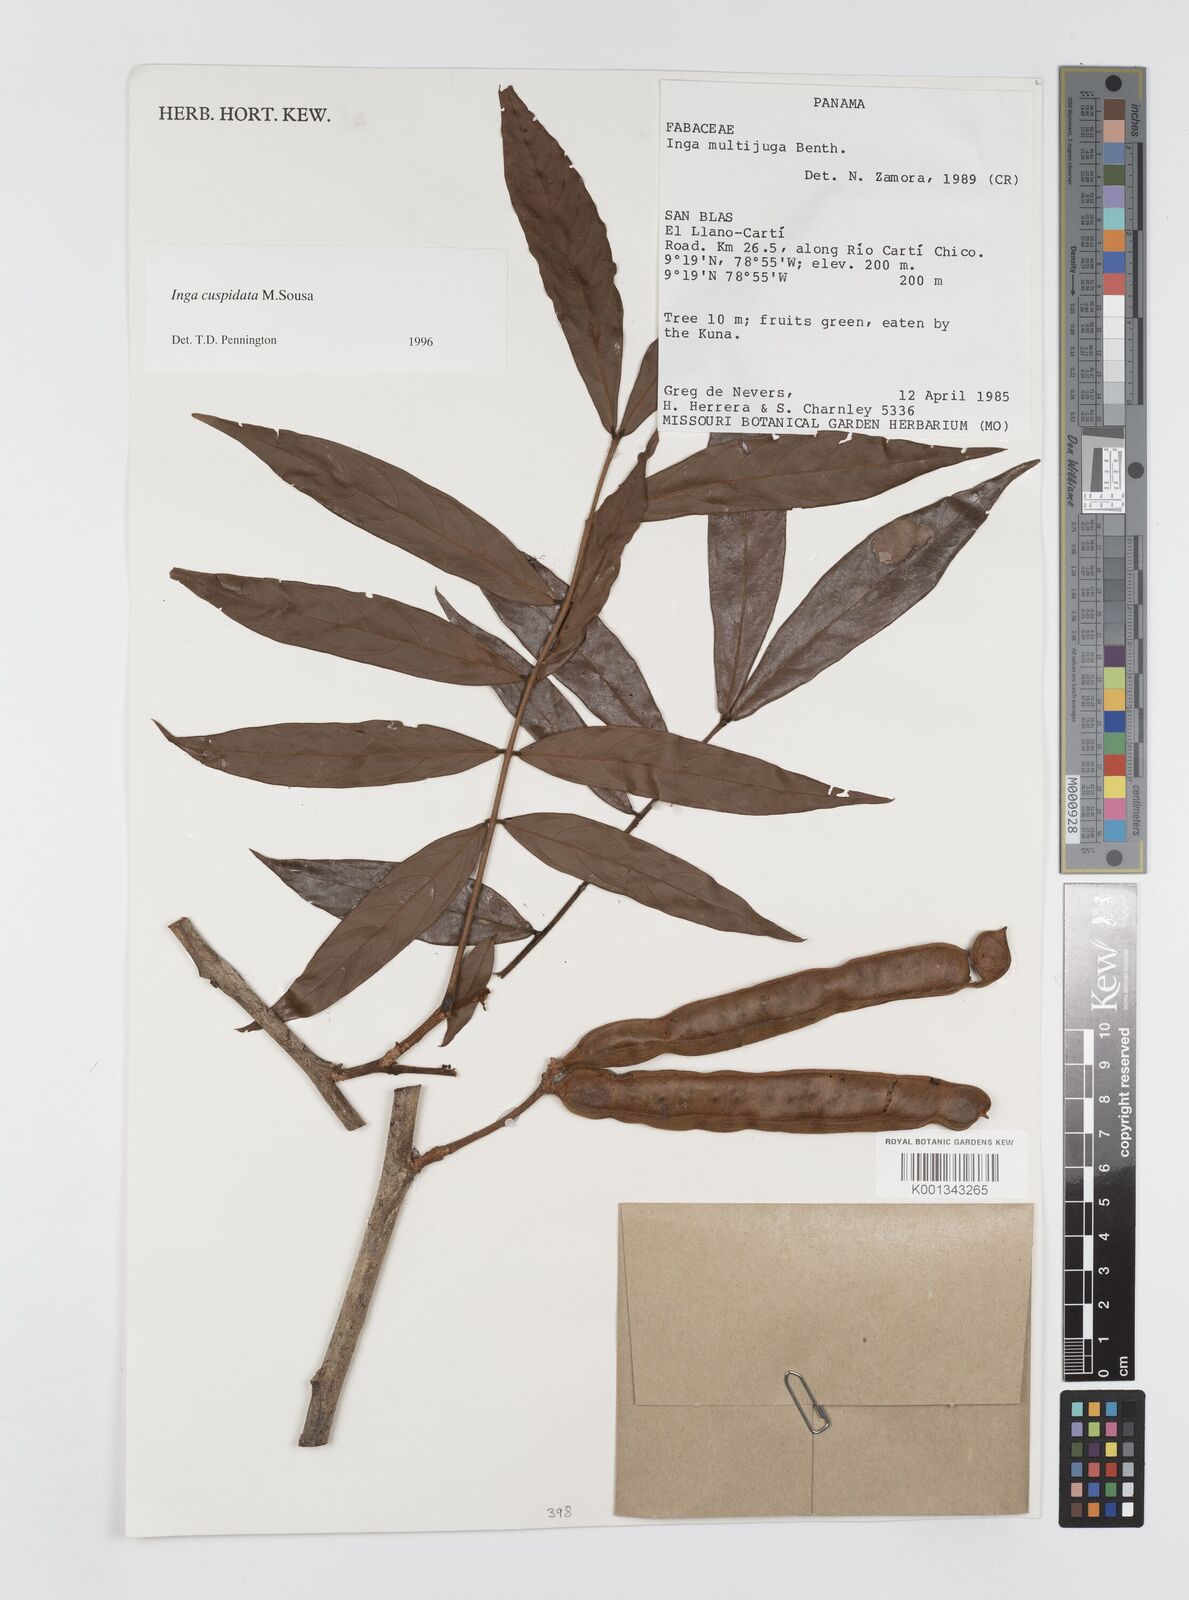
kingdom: Plantae
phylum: Tracheophyta
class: Magnoliopsida
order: Fabales
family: Fabaceae
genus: Inga
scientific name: Inga cuspidata
